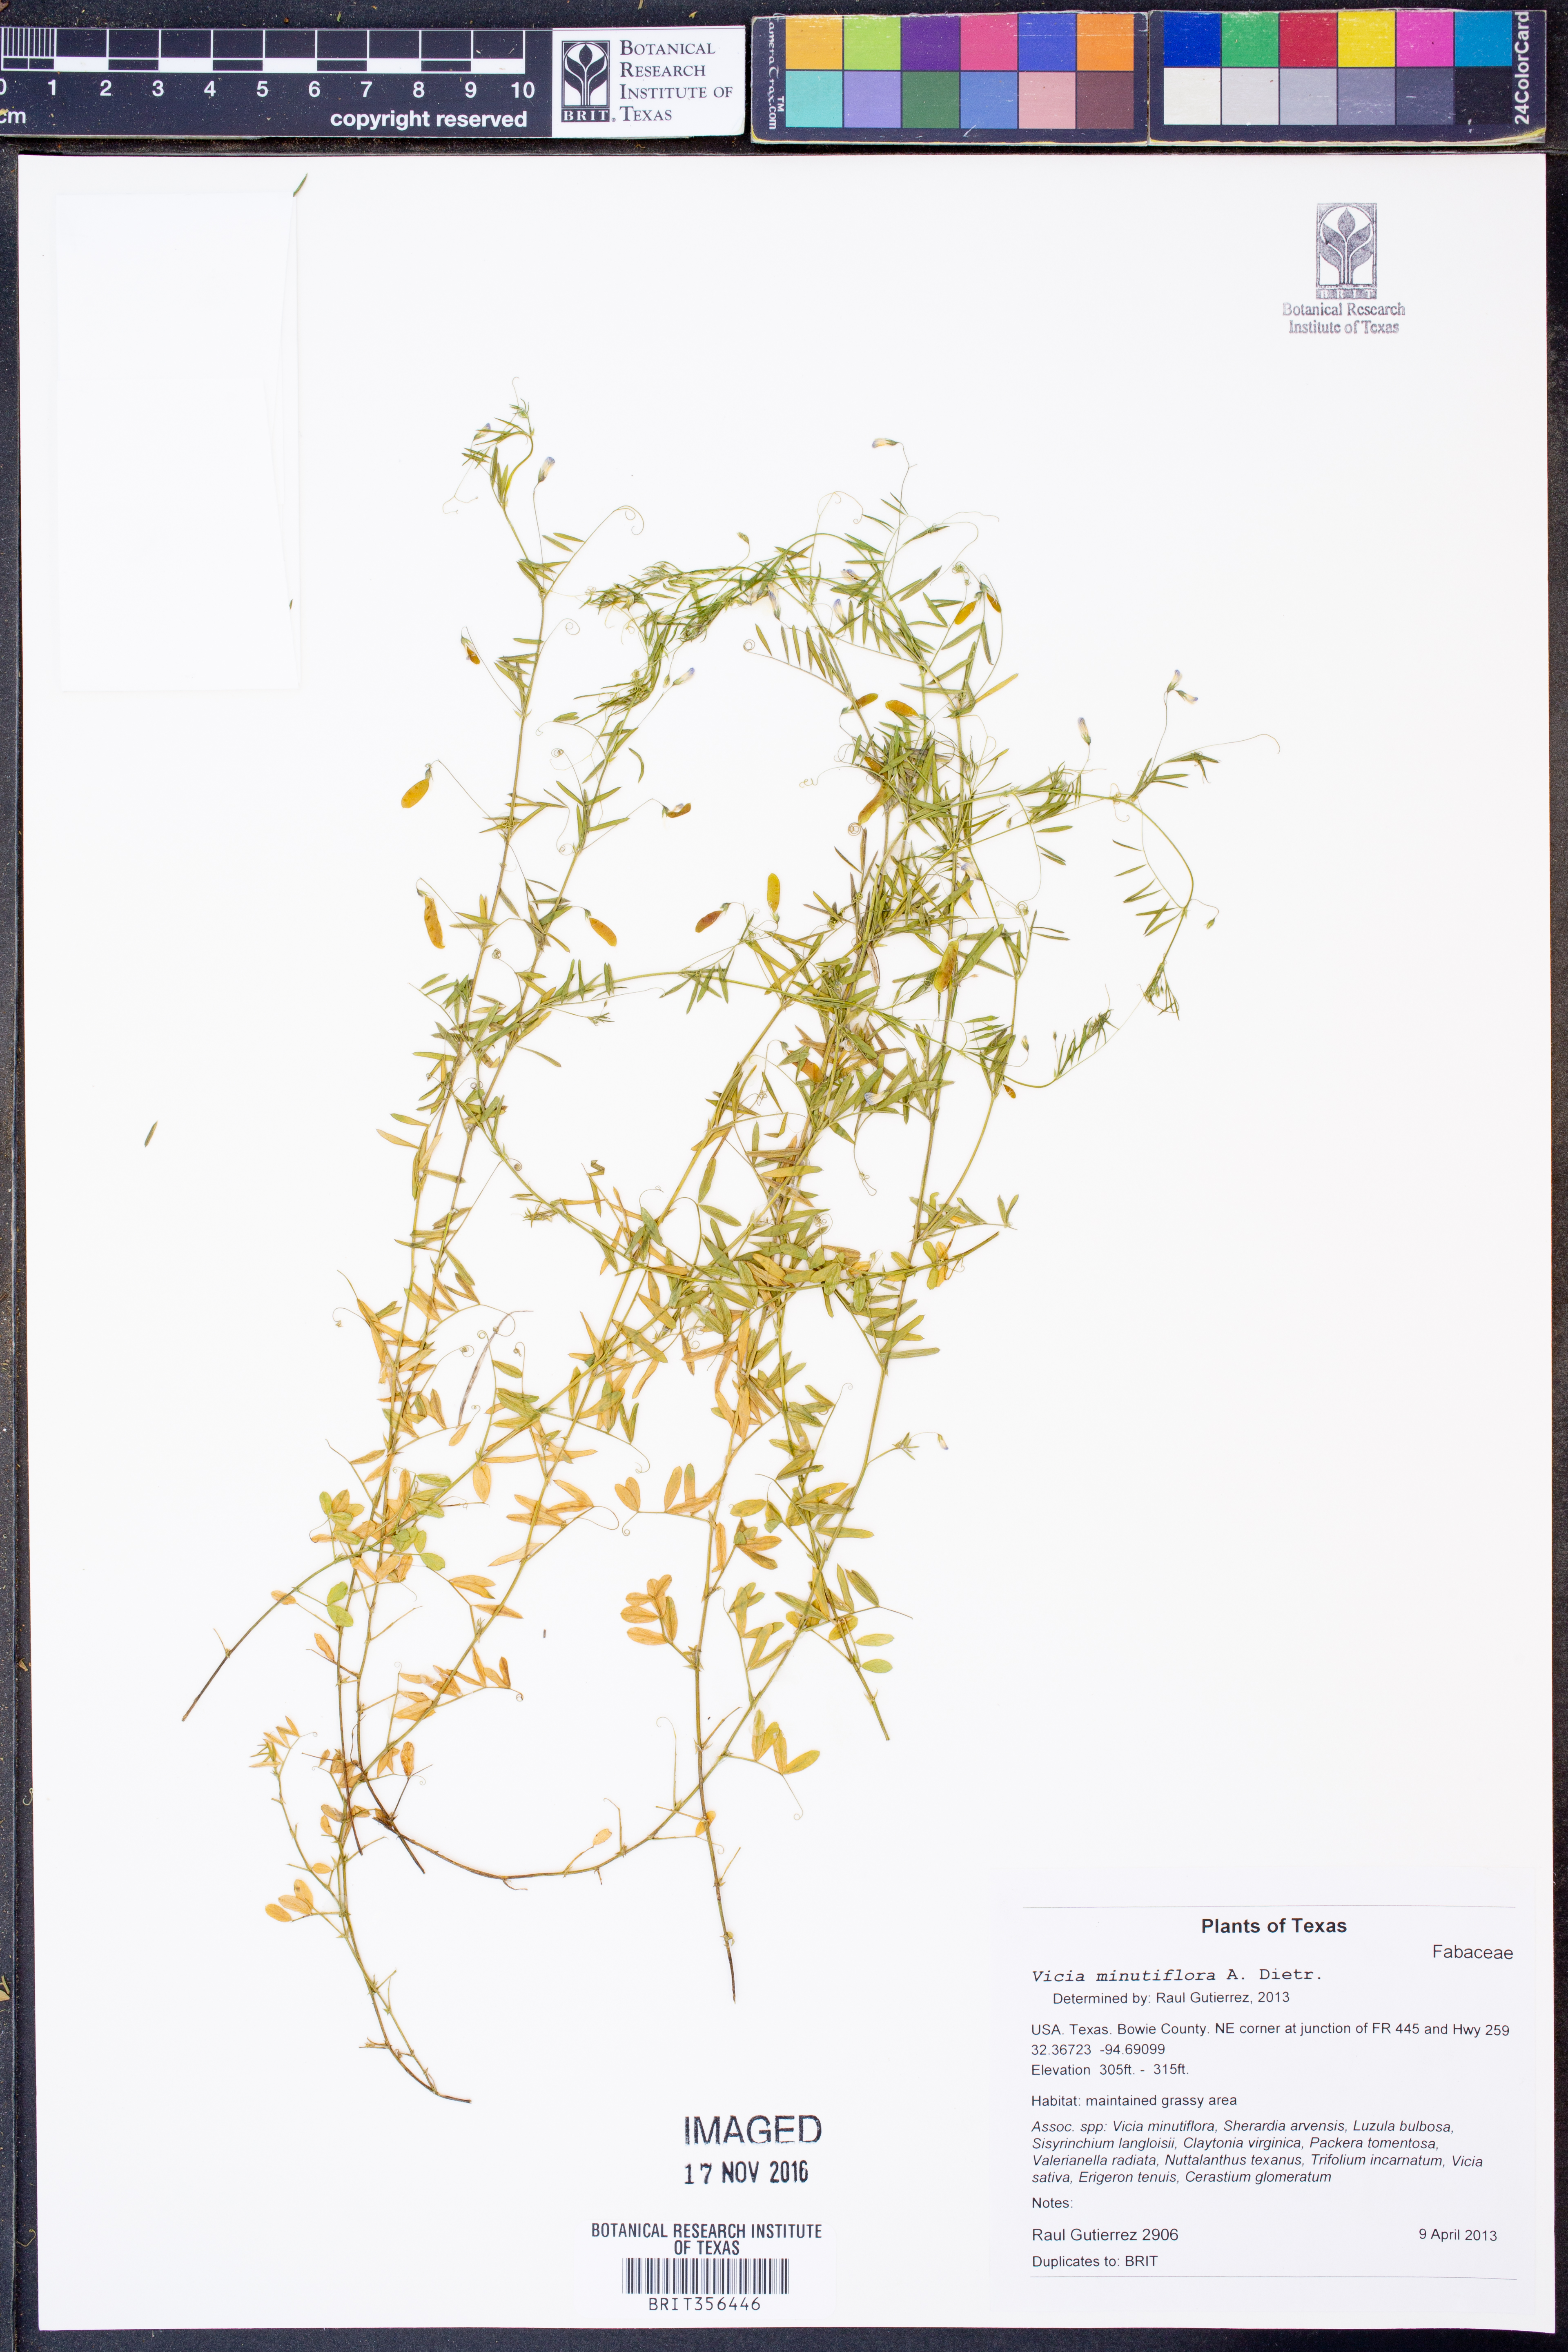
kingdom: Plantae
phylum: Tracheophyta
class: Magnoliopsida
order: Fabales
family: Fabaceae
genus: Vicia
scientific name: Vicia minutiflora
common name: Pygmy-flower vetch
